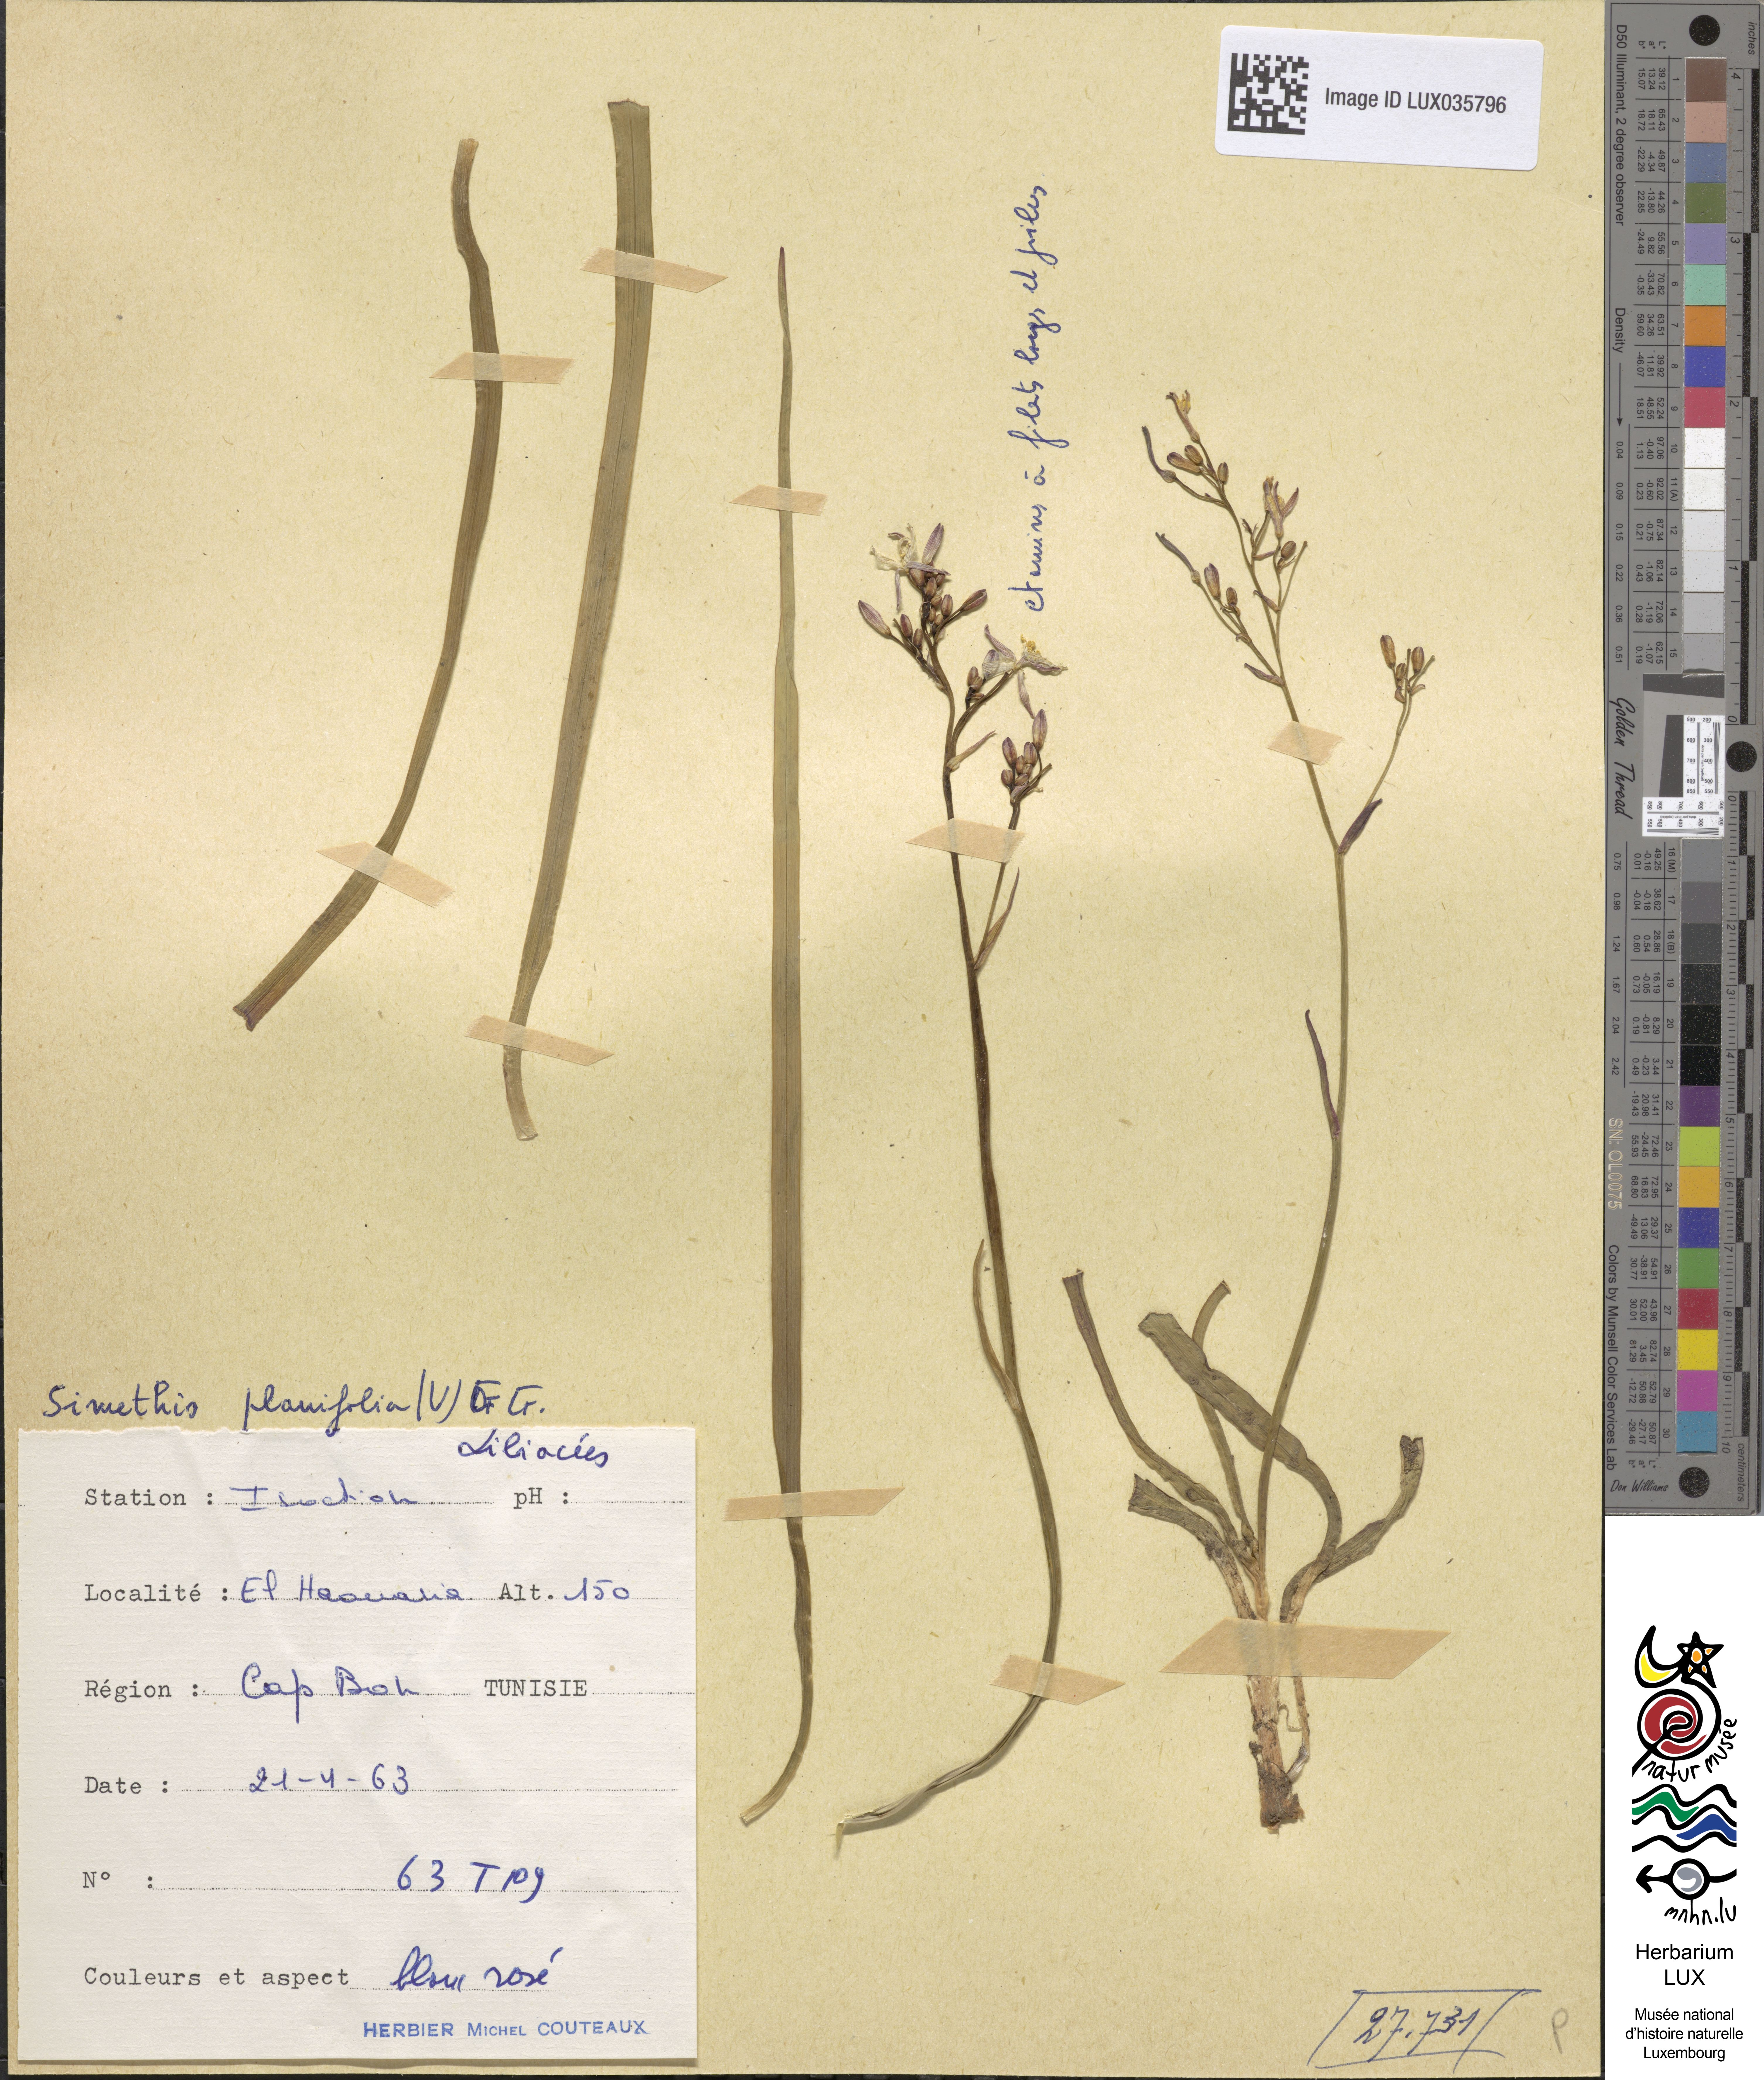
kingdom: Plantae
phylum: Tracheophyta
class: Liliopsida
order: Asparagales
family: Asphodelaceae
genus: Simethis
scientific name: Simethis mattiazzii
